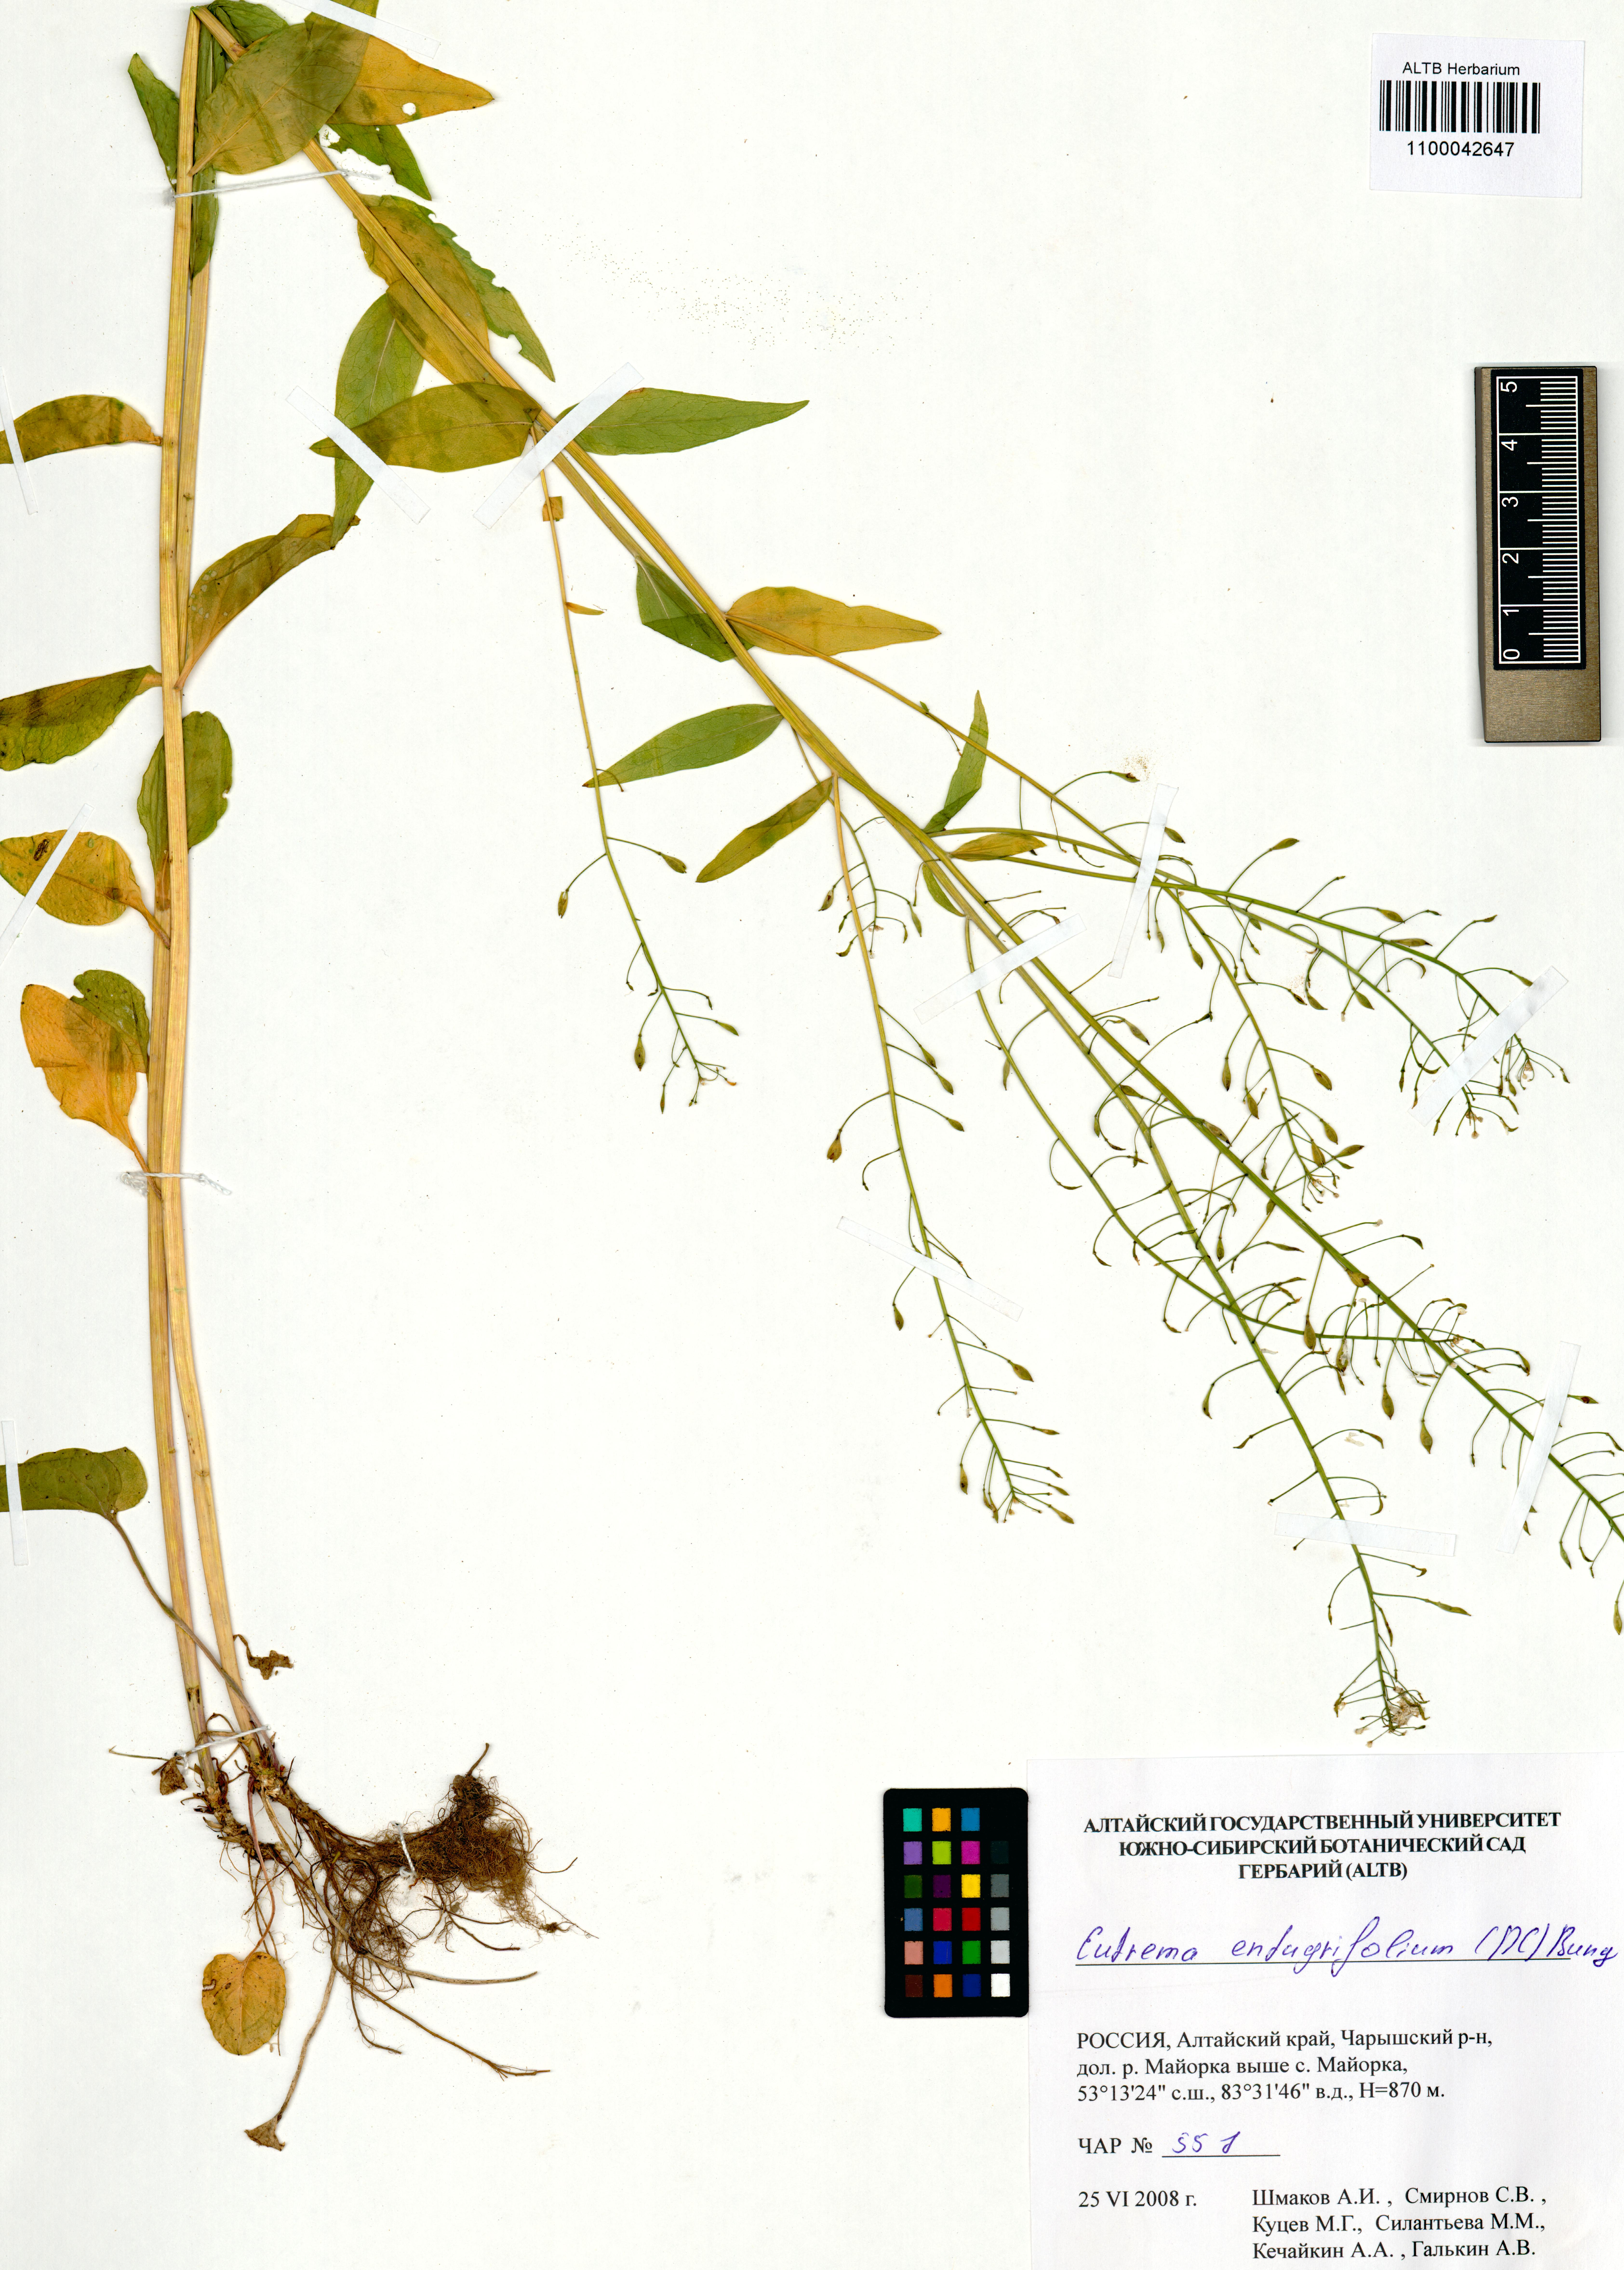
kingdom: Plantae
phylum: Tracheophyta
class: Magnoliopsida
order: Brassicales
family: Brassicaceae
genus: Eutrema
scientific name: Eutrema integrifolium
